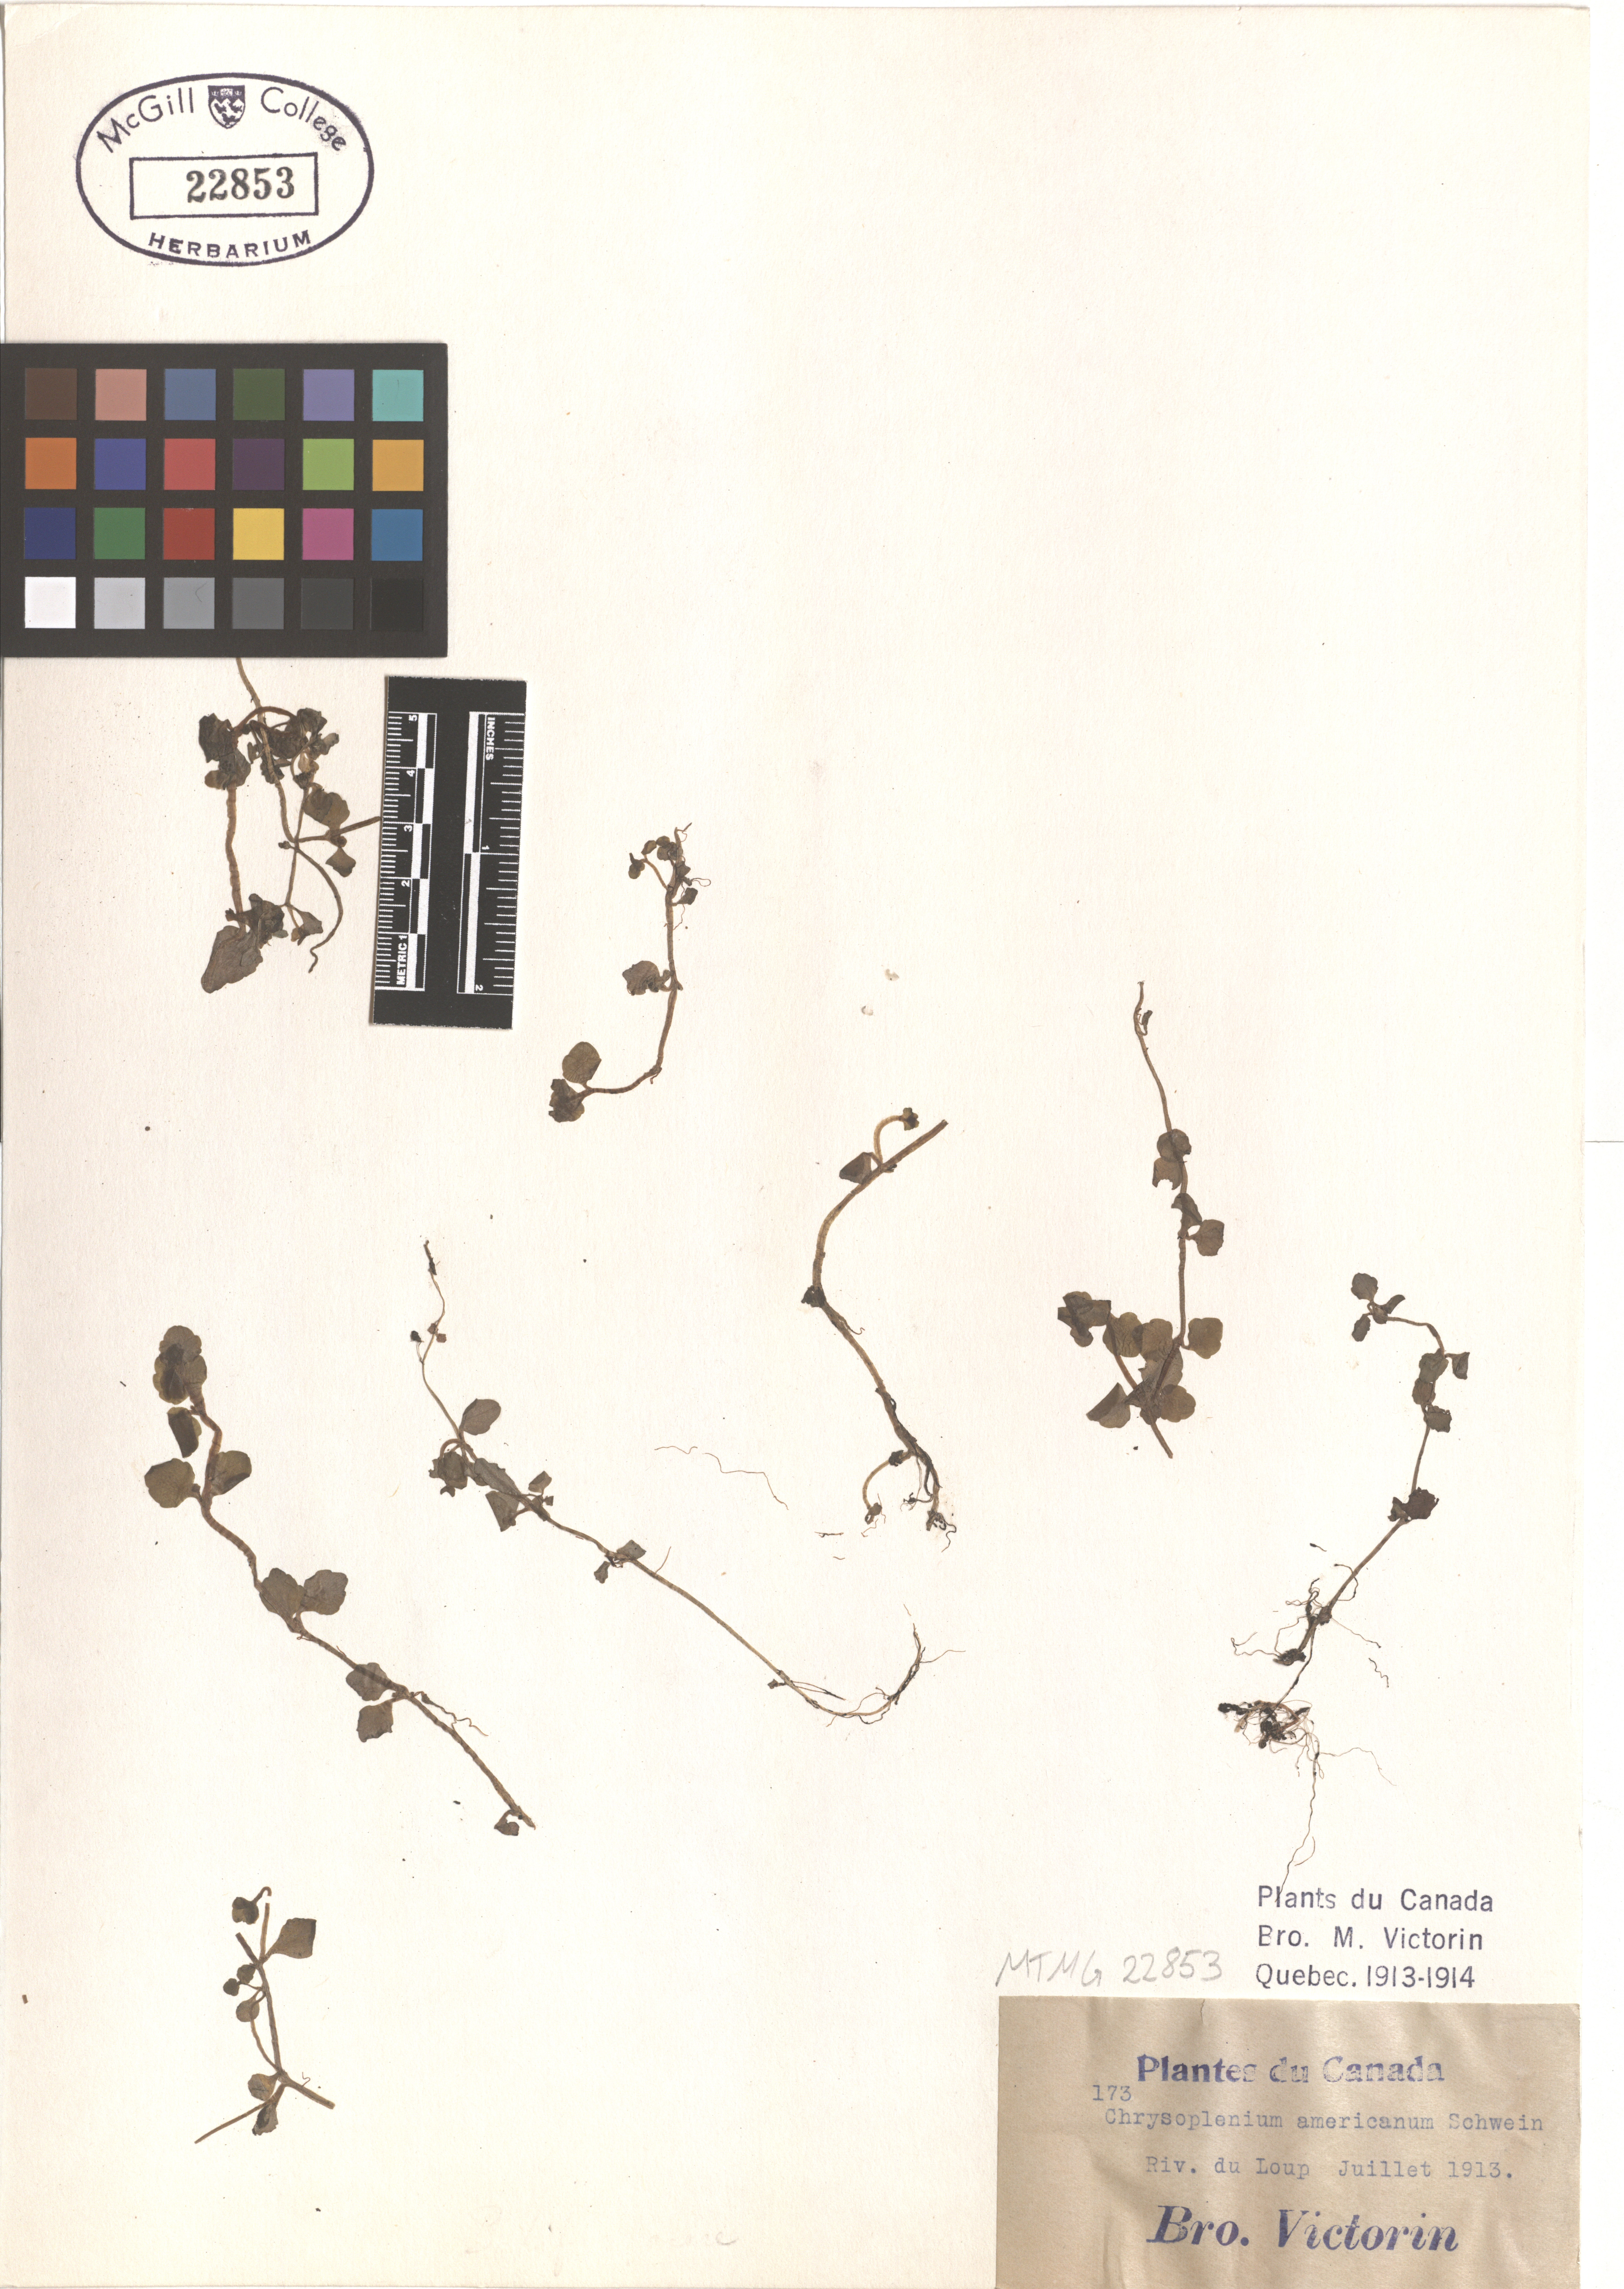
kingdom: Plantae
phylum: Tracheophyta
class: Magnoliopsida
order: Saxifragales
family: Saxifragaceae
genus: Chrysosplenium
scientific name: Chrysosplenium americanum
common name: American golden-saxifrage
